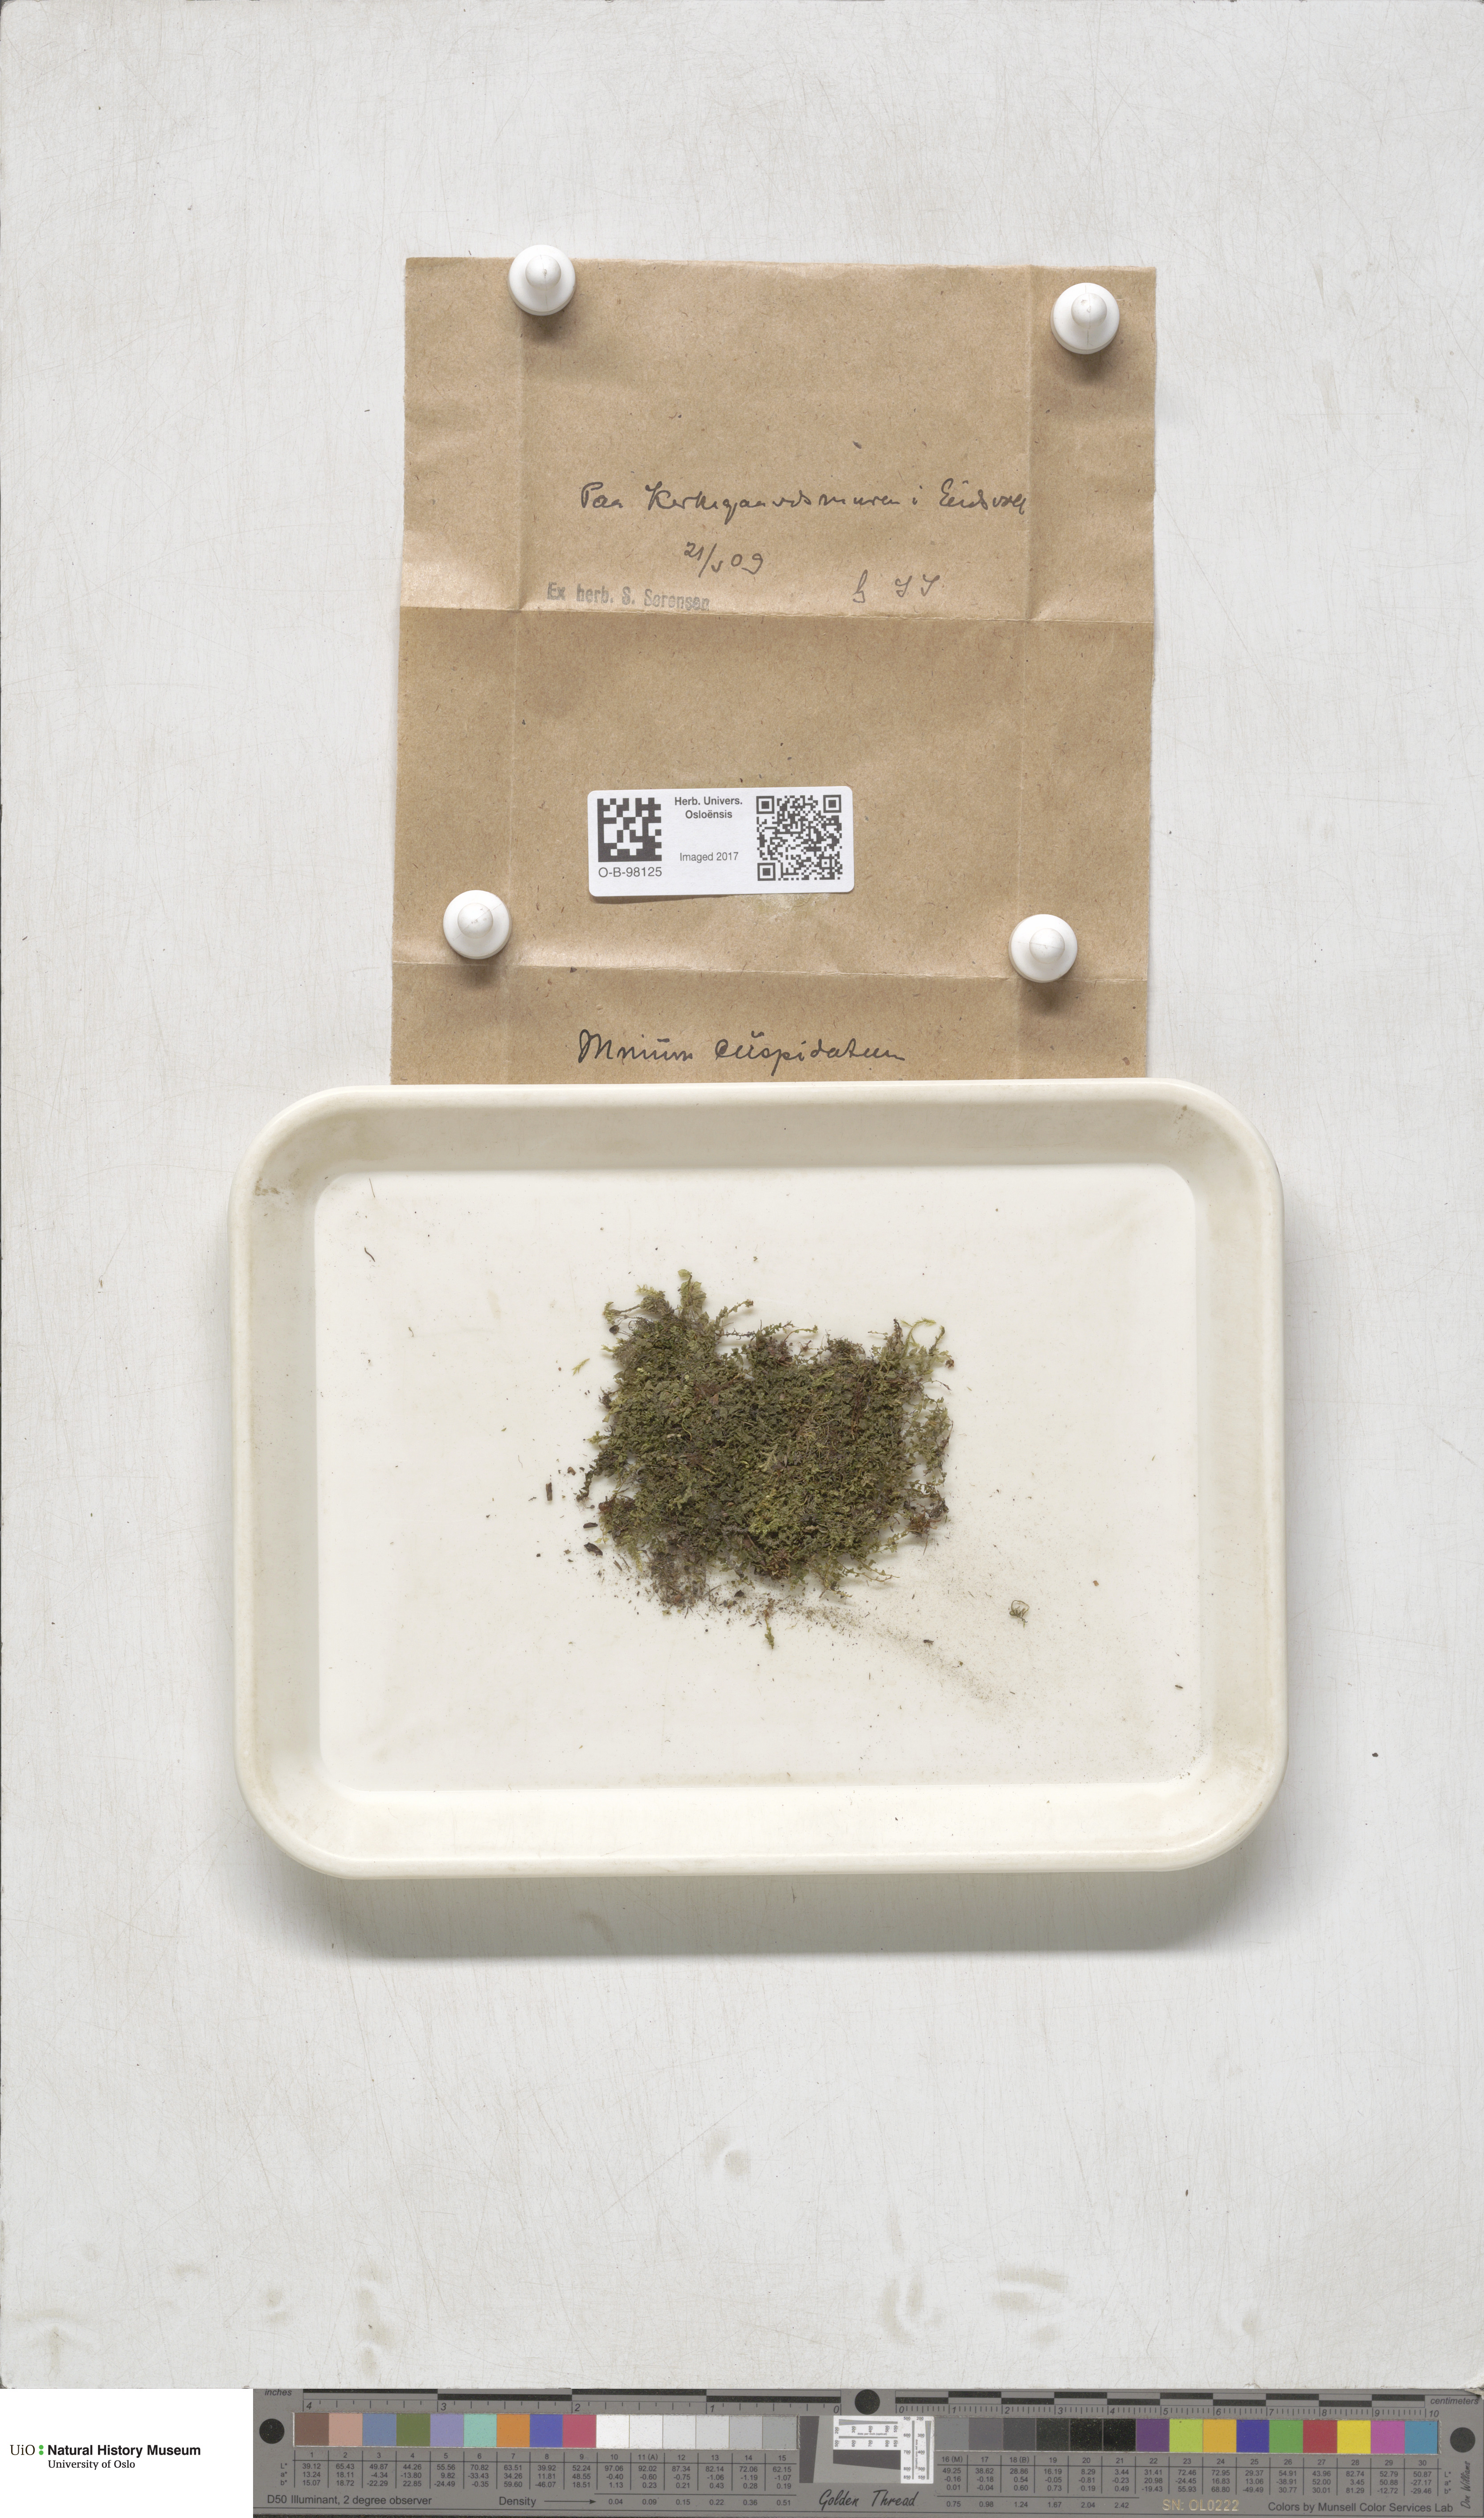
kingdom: Plantae
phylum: Bryophyta
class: Bryopsida
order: Bryales
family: Mniaceae
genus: Plagiomnium
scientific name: Plagiomnium cuspidatum
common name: Woodsy leafy moss
